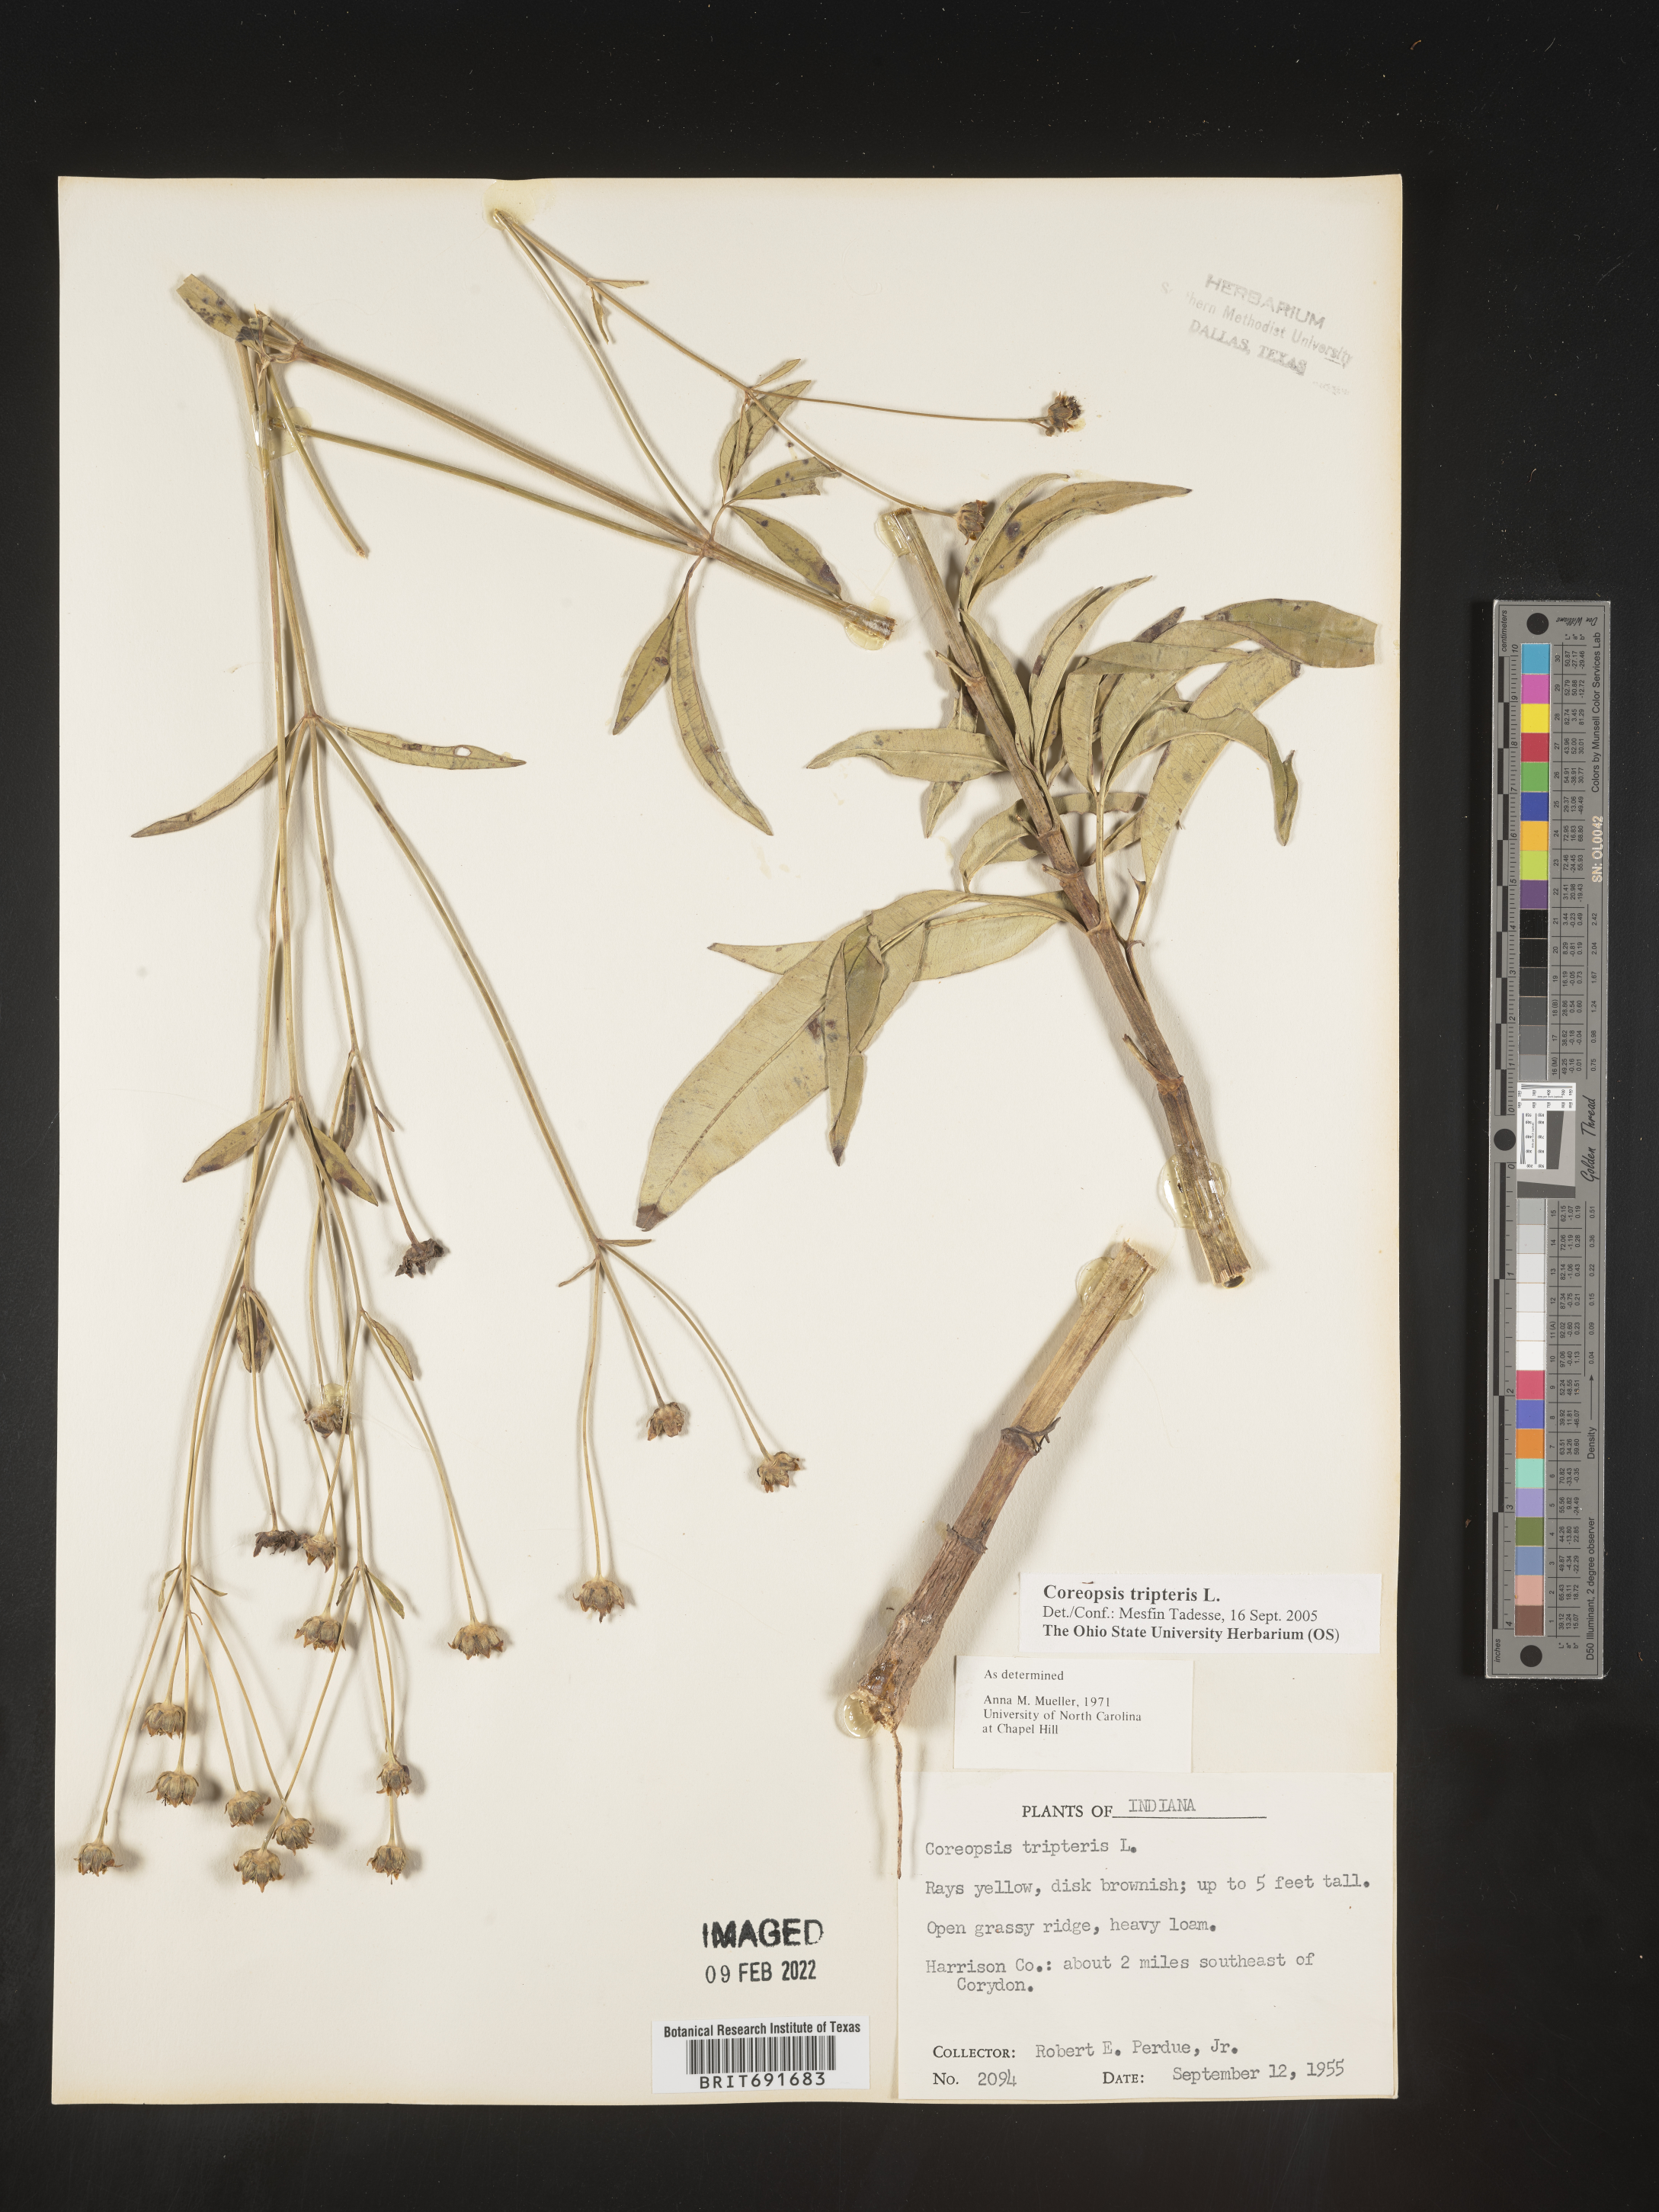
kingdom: Plantae
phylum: Tracheophyta
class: Magnoliopsida
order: Asterales
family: Asteraceae
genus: Coreopsis
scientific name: Coreopsis tripteris
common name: Tall coreopsis
